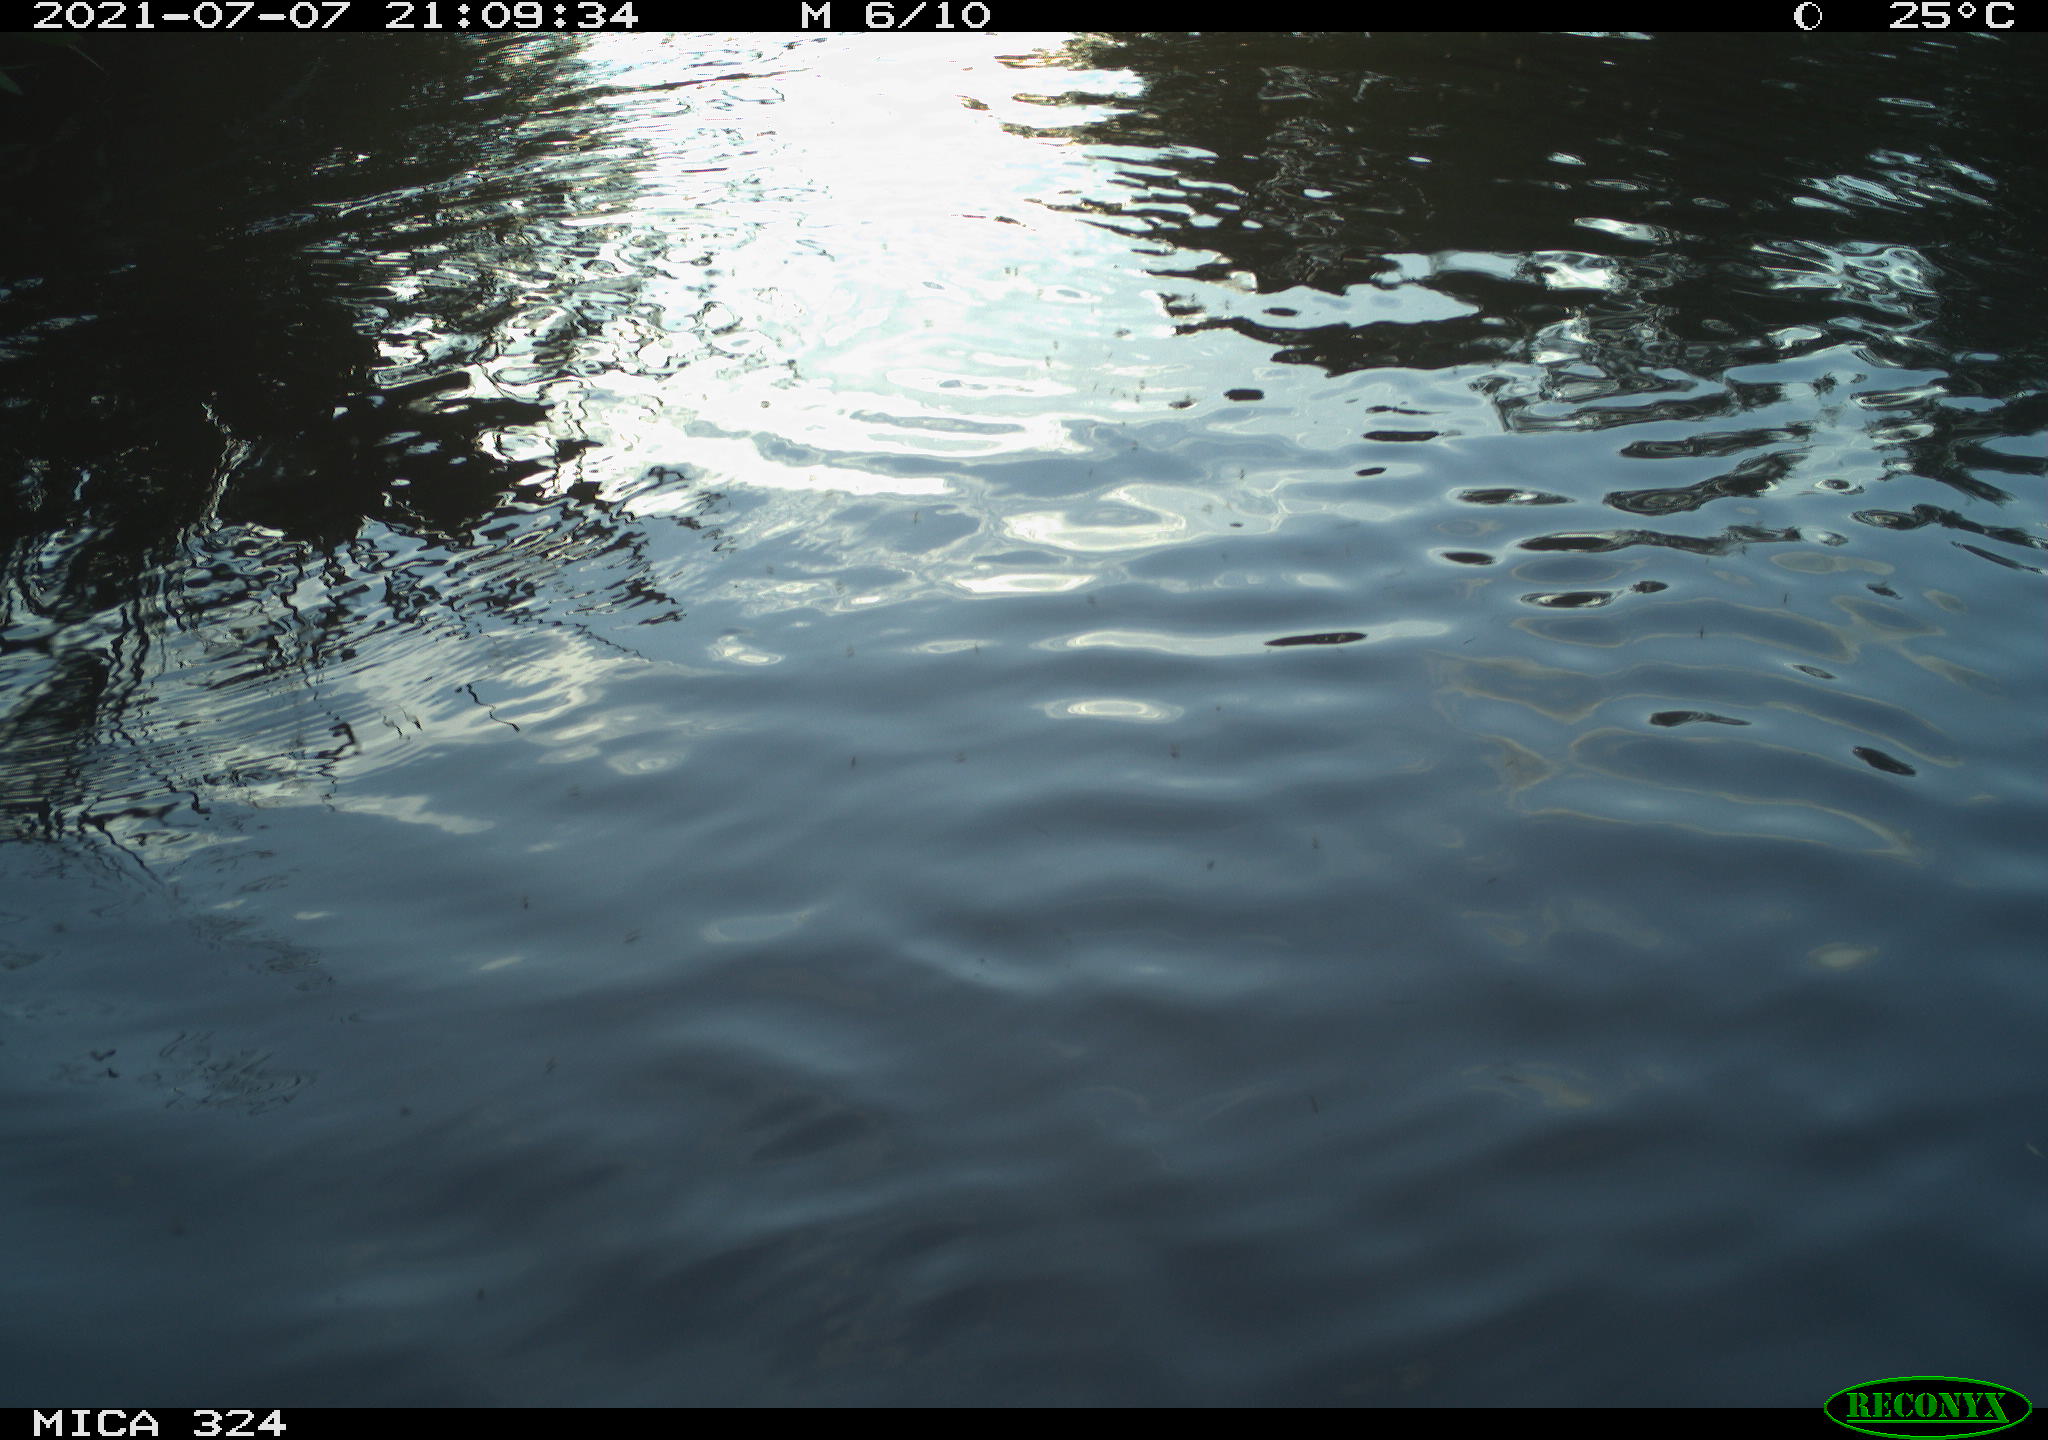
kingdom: Animalia
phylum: Chordata
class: Aves
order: Gruiformes
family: Rallidae
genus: Gallinula
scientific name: Gallinula chloropus
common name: Common moorhen
